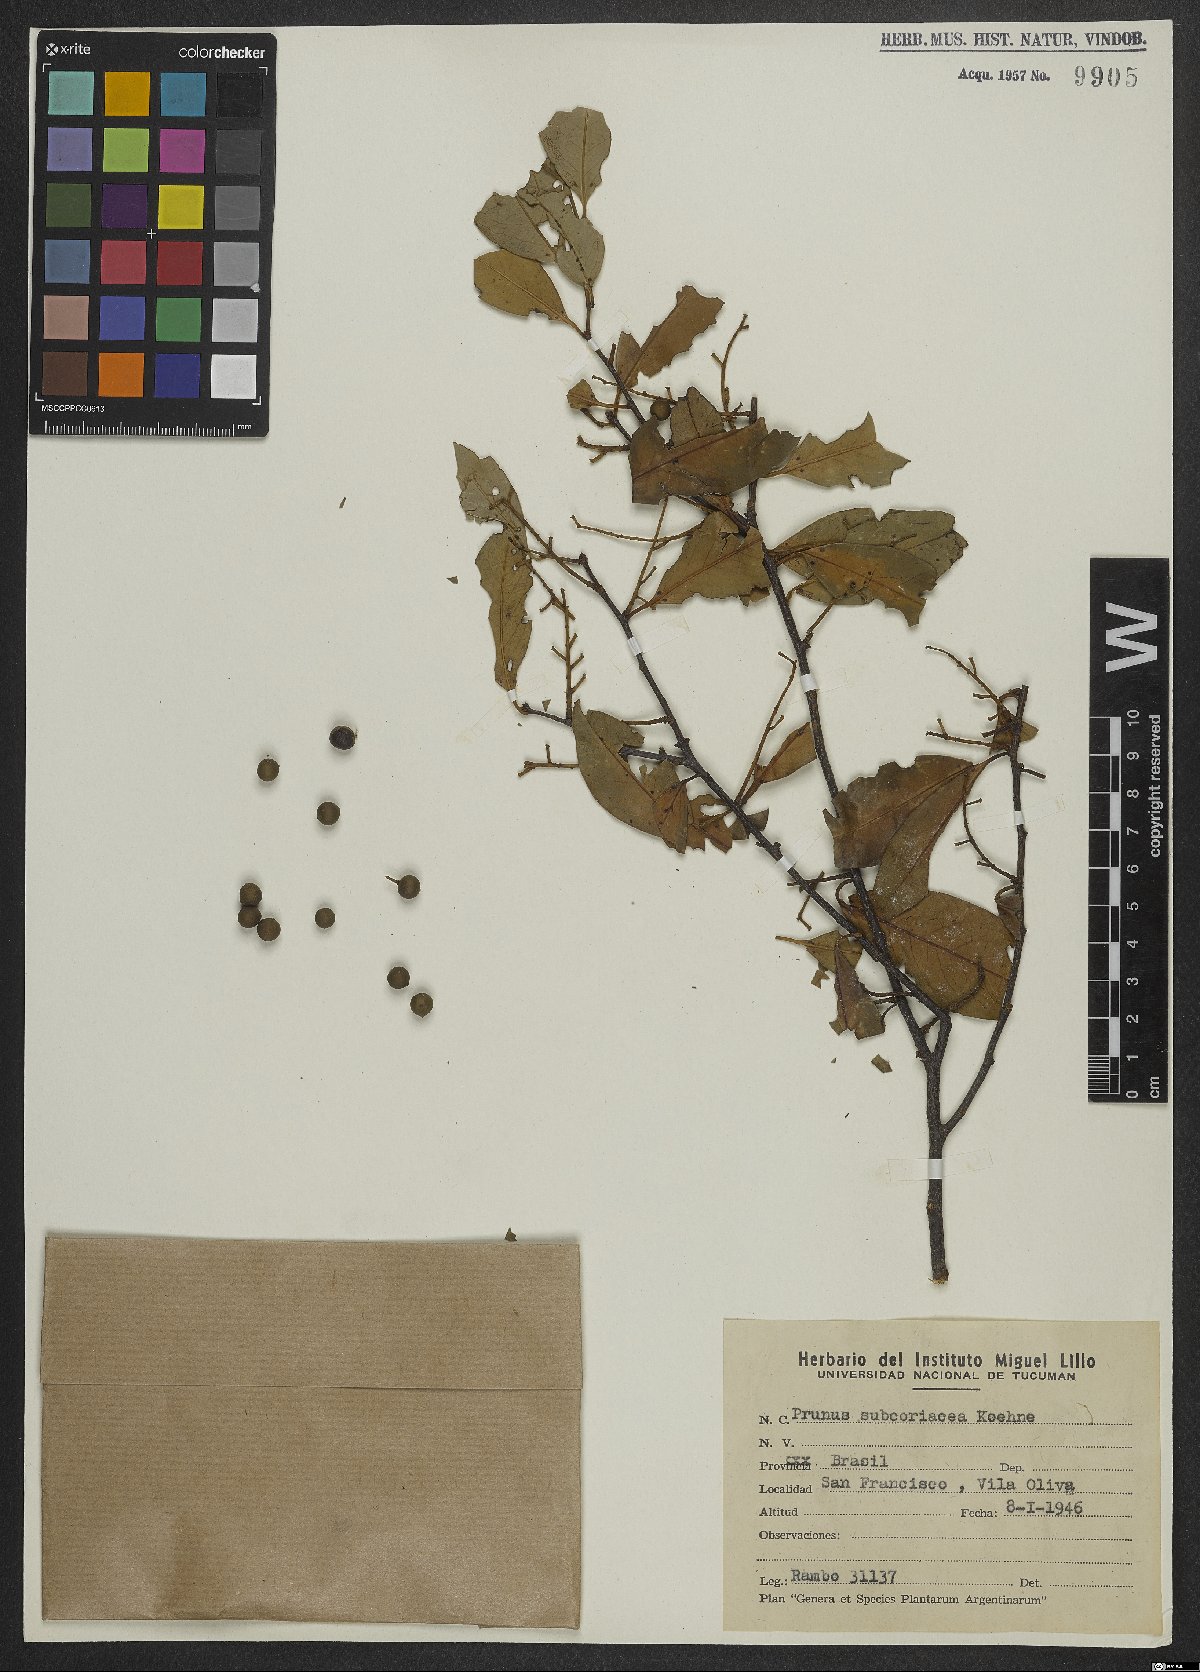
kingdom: Plantae
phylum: Tracheophyta
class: Magnoliopsida
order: Rosales
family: Rosaceae
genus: Prunus
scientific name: Prunus subcoriacea
